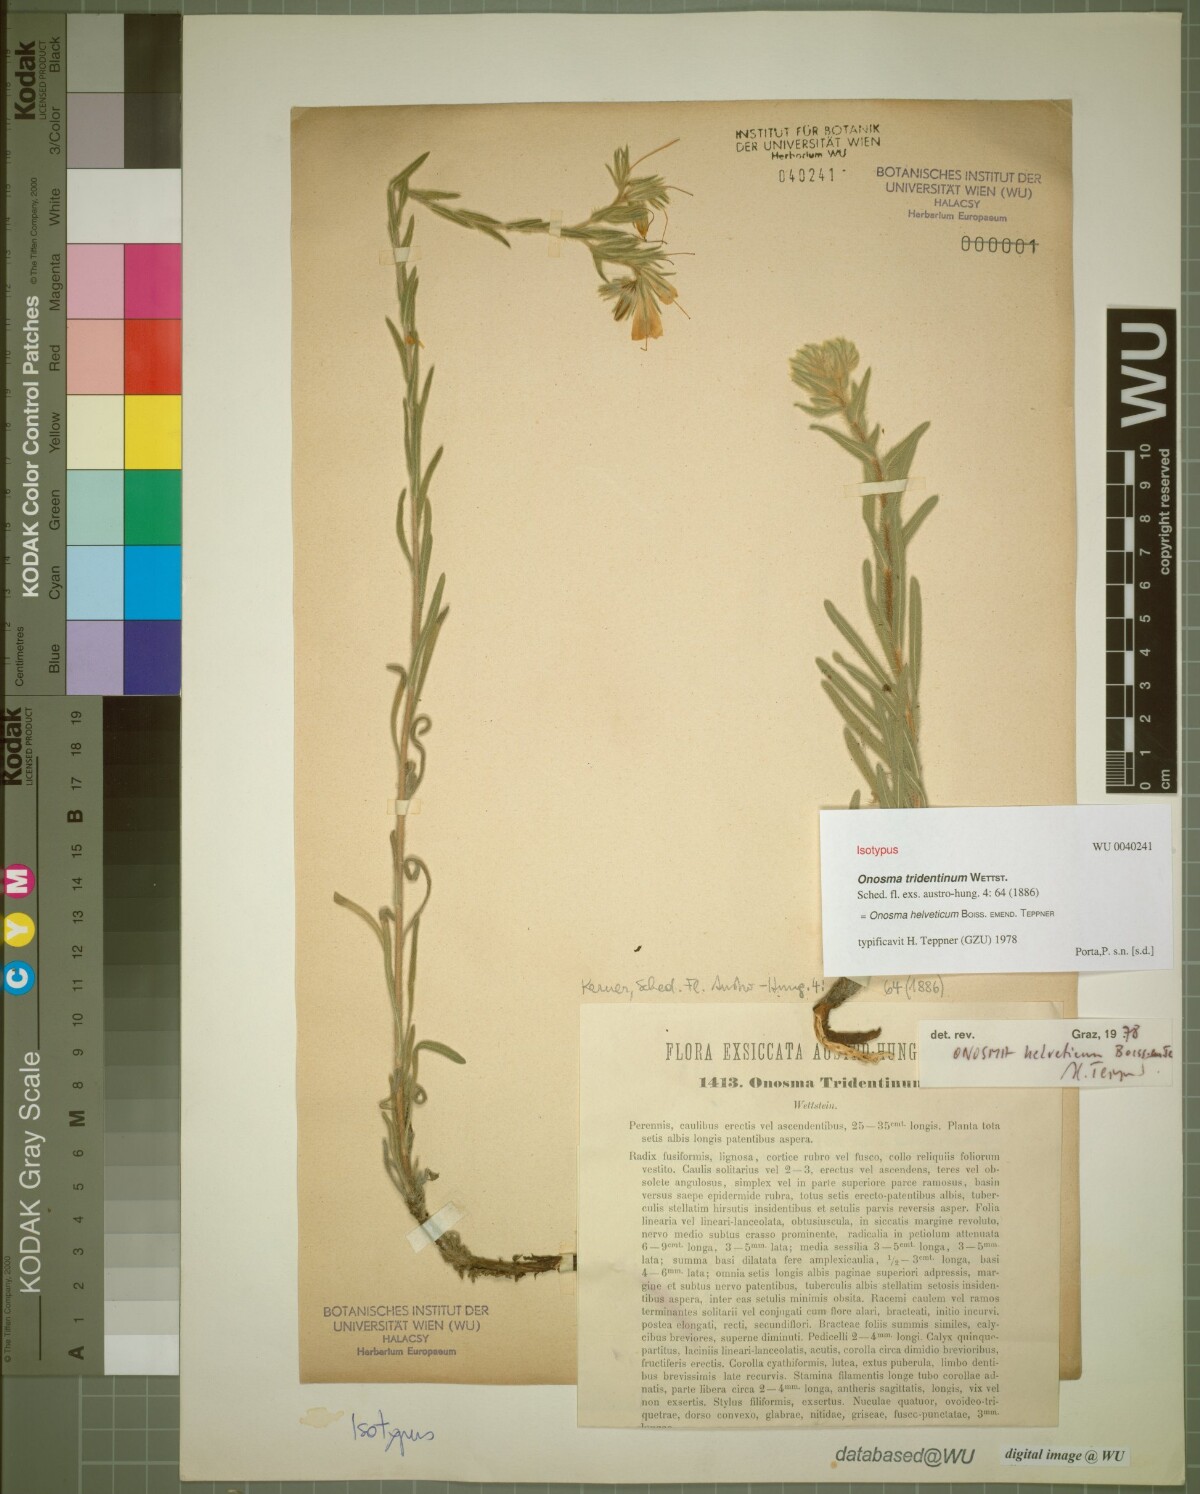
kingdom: Plantae
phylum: Tracheophyta
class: Magnoliopsida
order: Boraginales
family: Boraginaceae
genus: Onosma
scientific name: Onosma pseudoarenaria
